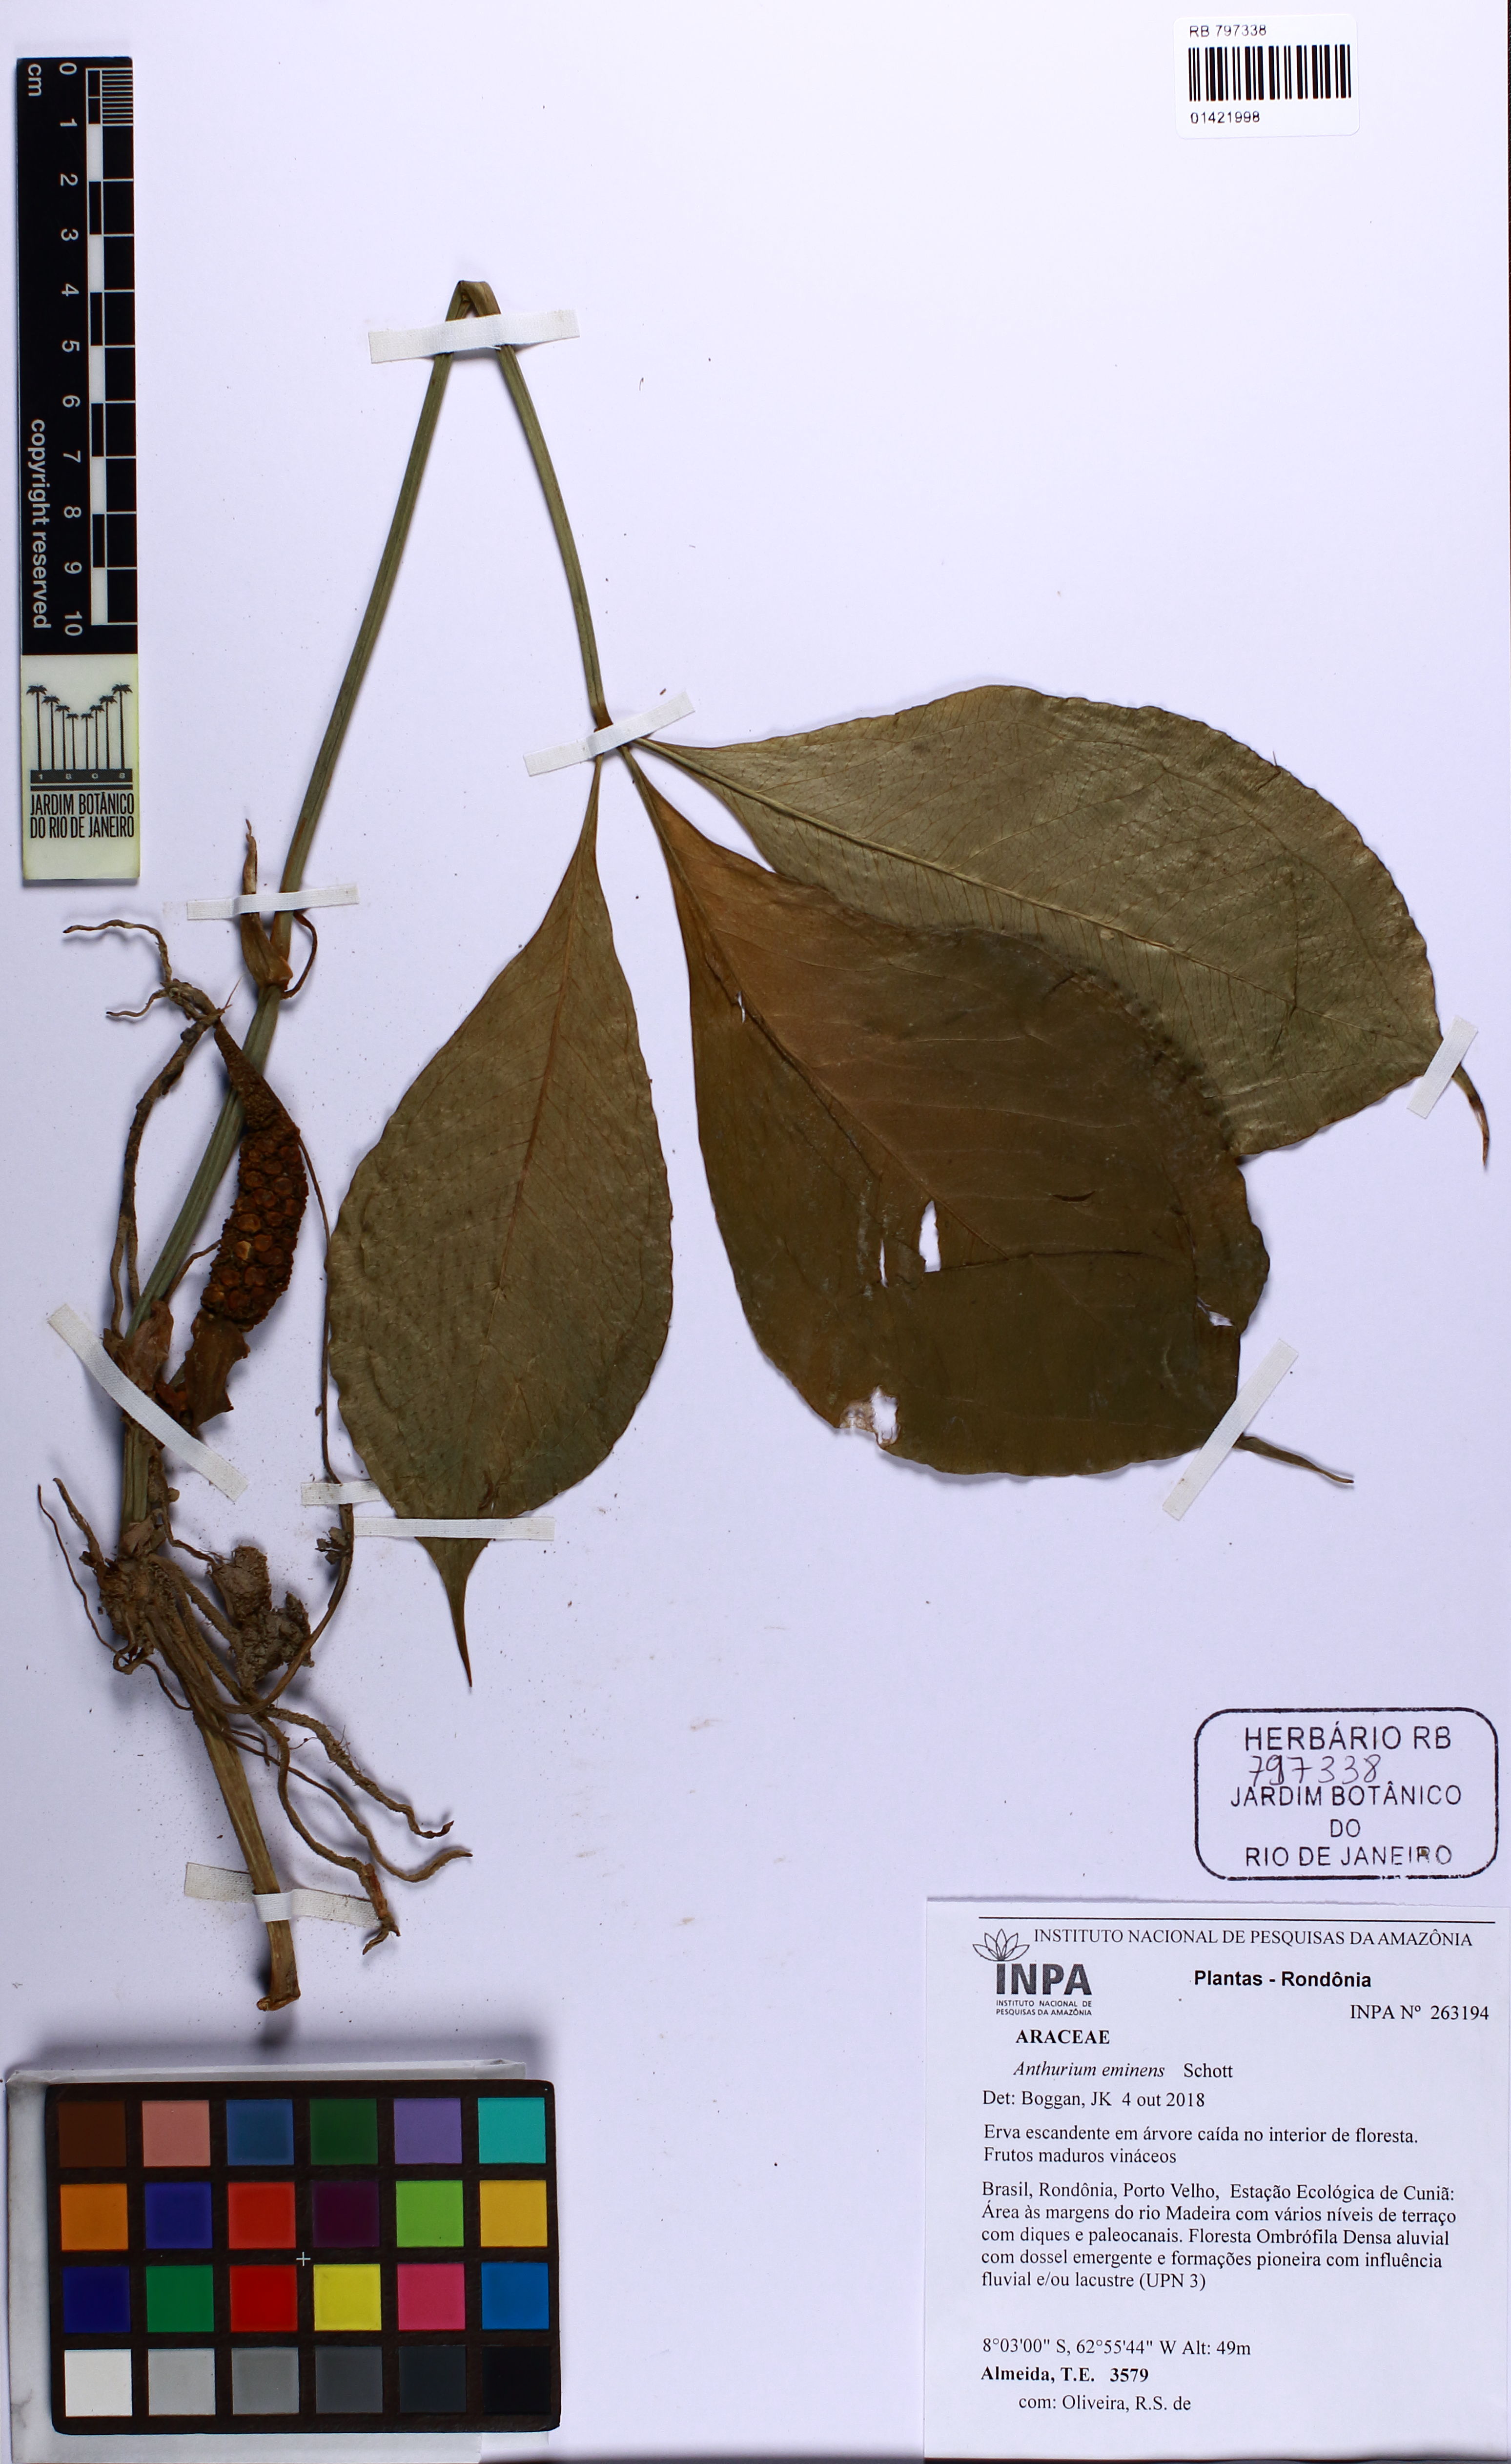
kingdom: Plantae
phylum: Tracheophyta
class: Liliopsida
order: Alismatales
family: Araceae
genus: Anthurium
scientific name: Anthurium eminens
